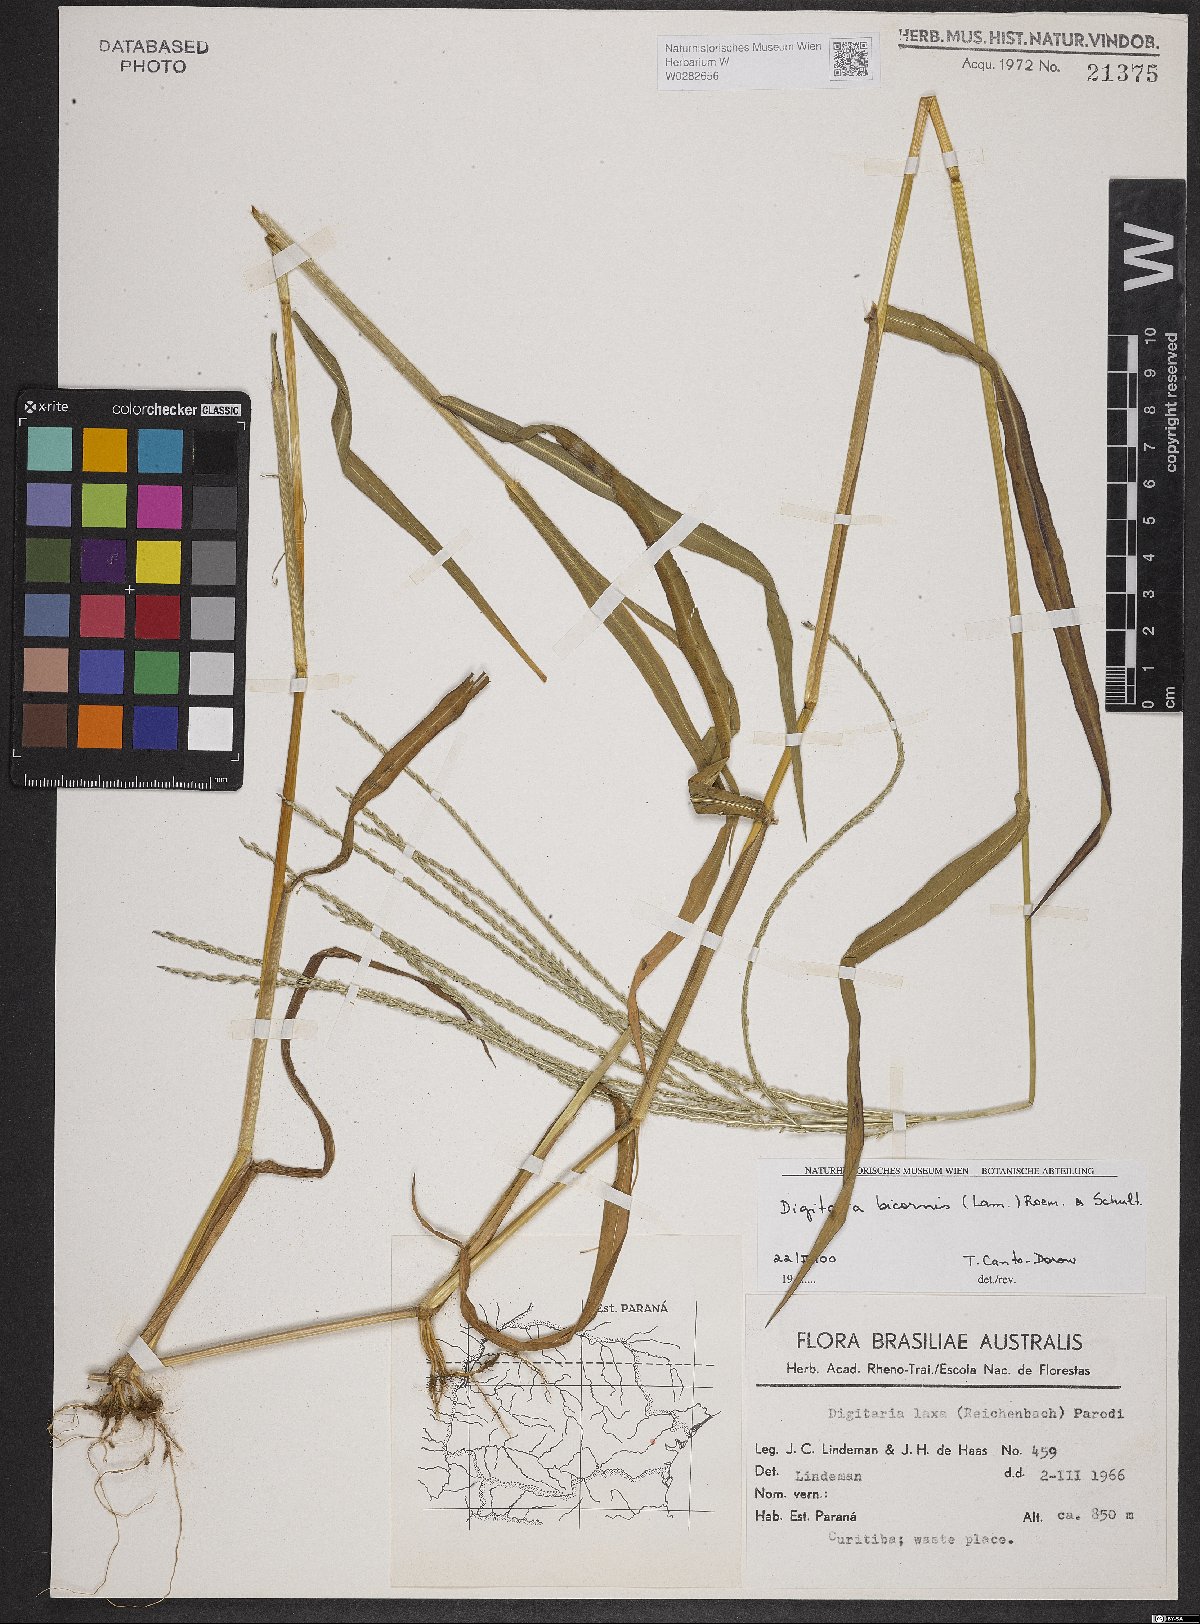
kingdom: Plantae
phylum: Tracheophyta
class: Liliopsida
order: Poales
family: Poaceae
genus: Digitaria
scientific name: Digitaria bicornis
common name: Asian crabgrass
